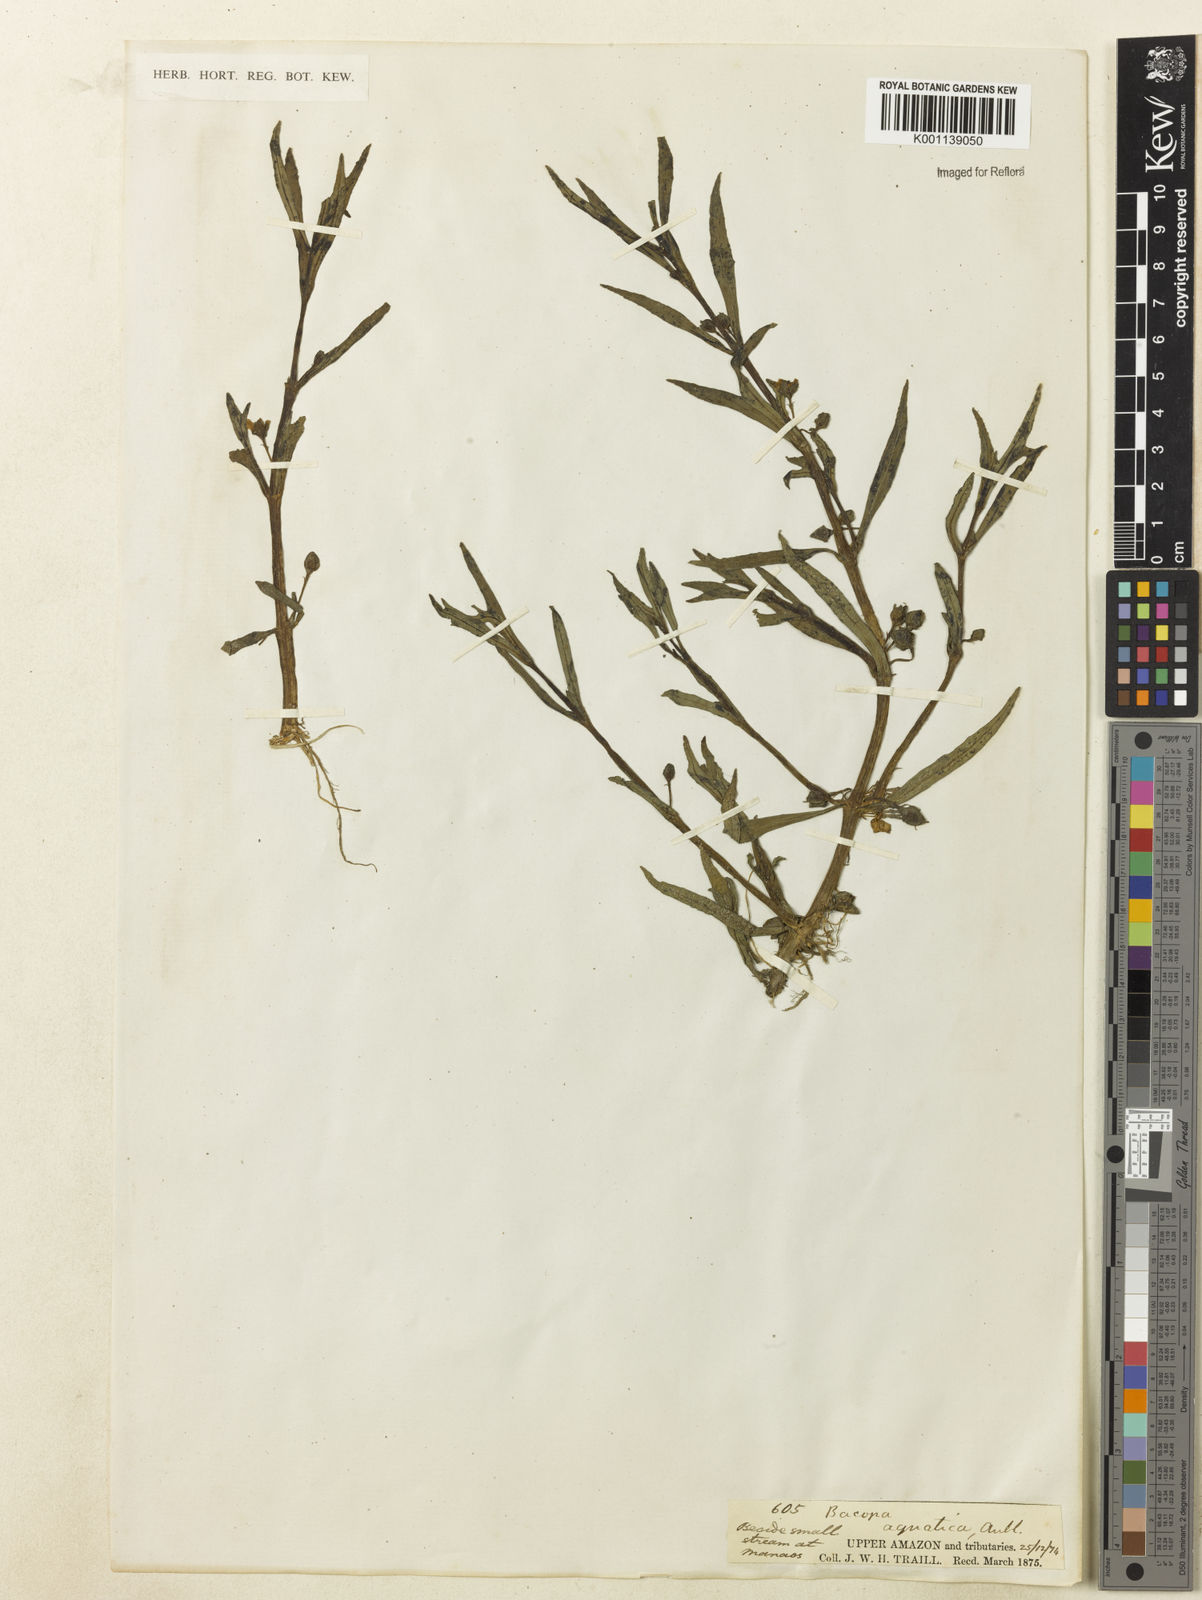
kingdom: Plantae
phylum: Tracheophyta
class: Magnoliopsida
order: Lamiales
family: Plantaginaceae
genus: Bacopa
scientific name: Bacopa aquatica
